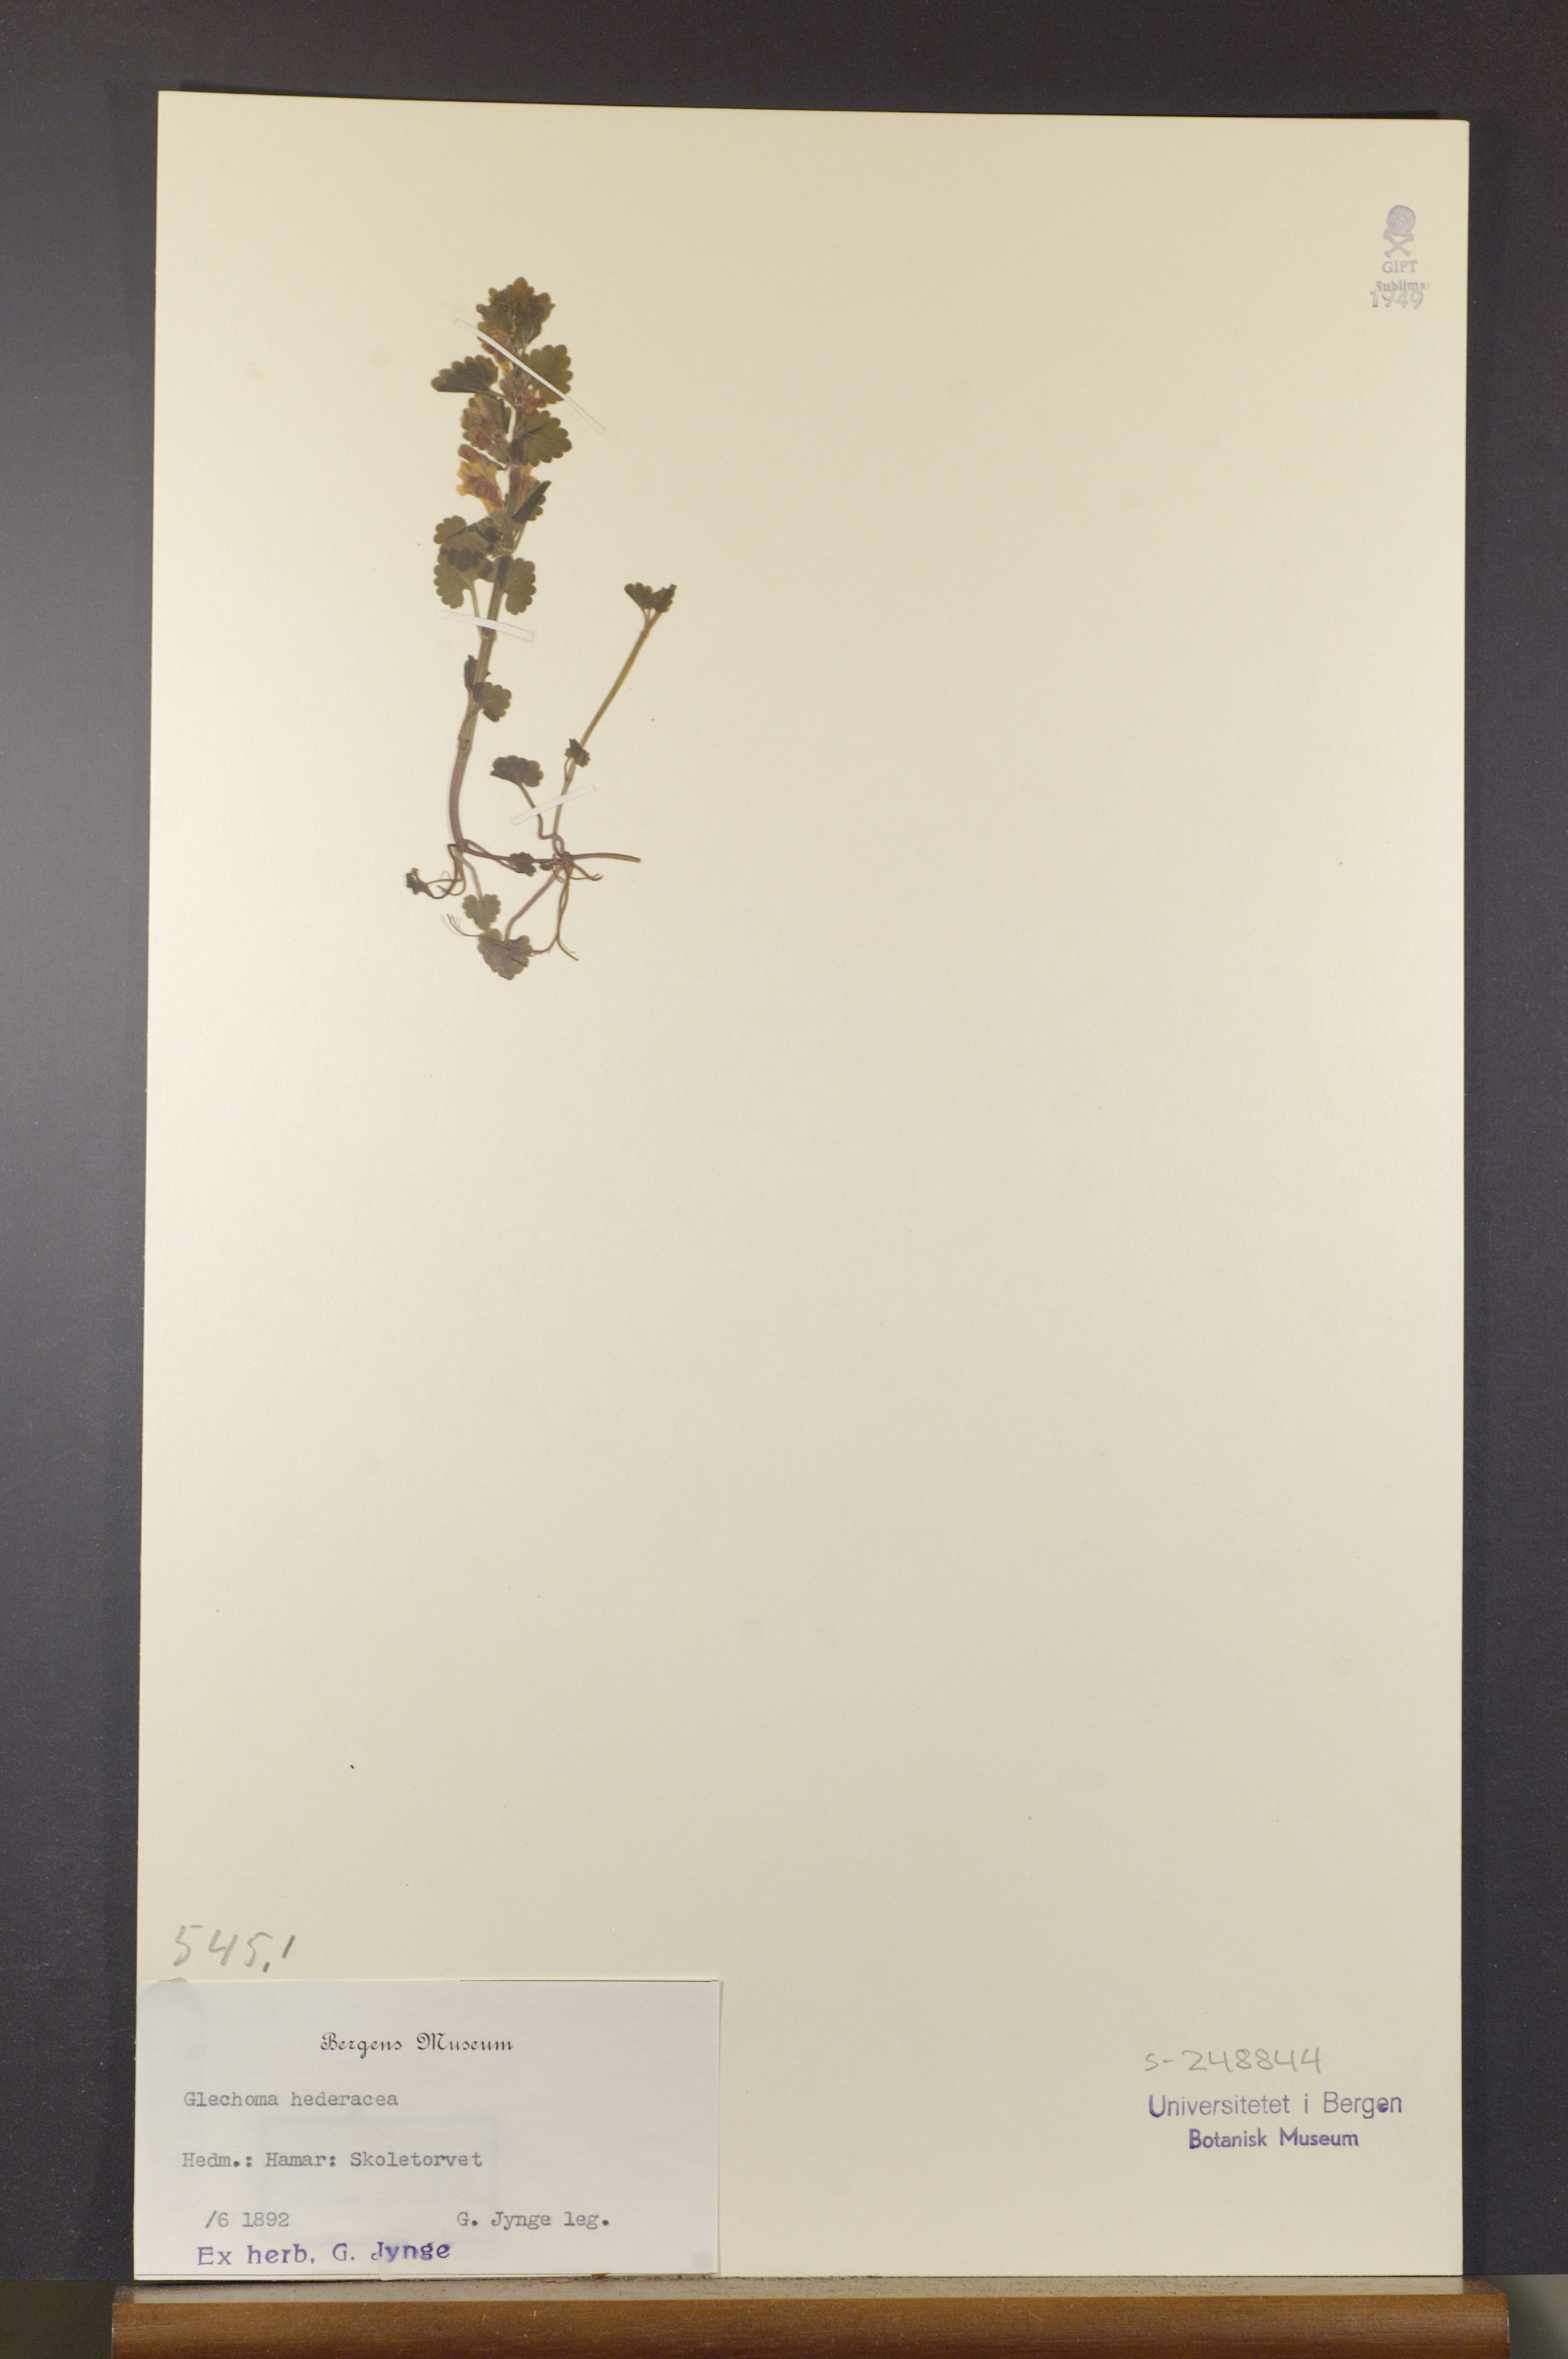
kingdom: Plantae
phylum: Tracheophyta
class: Magnoliopsida
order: Lamiales
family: Lamiaceae
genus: Glechoma
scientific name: Glechoma hederacea
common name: Ground ivy
